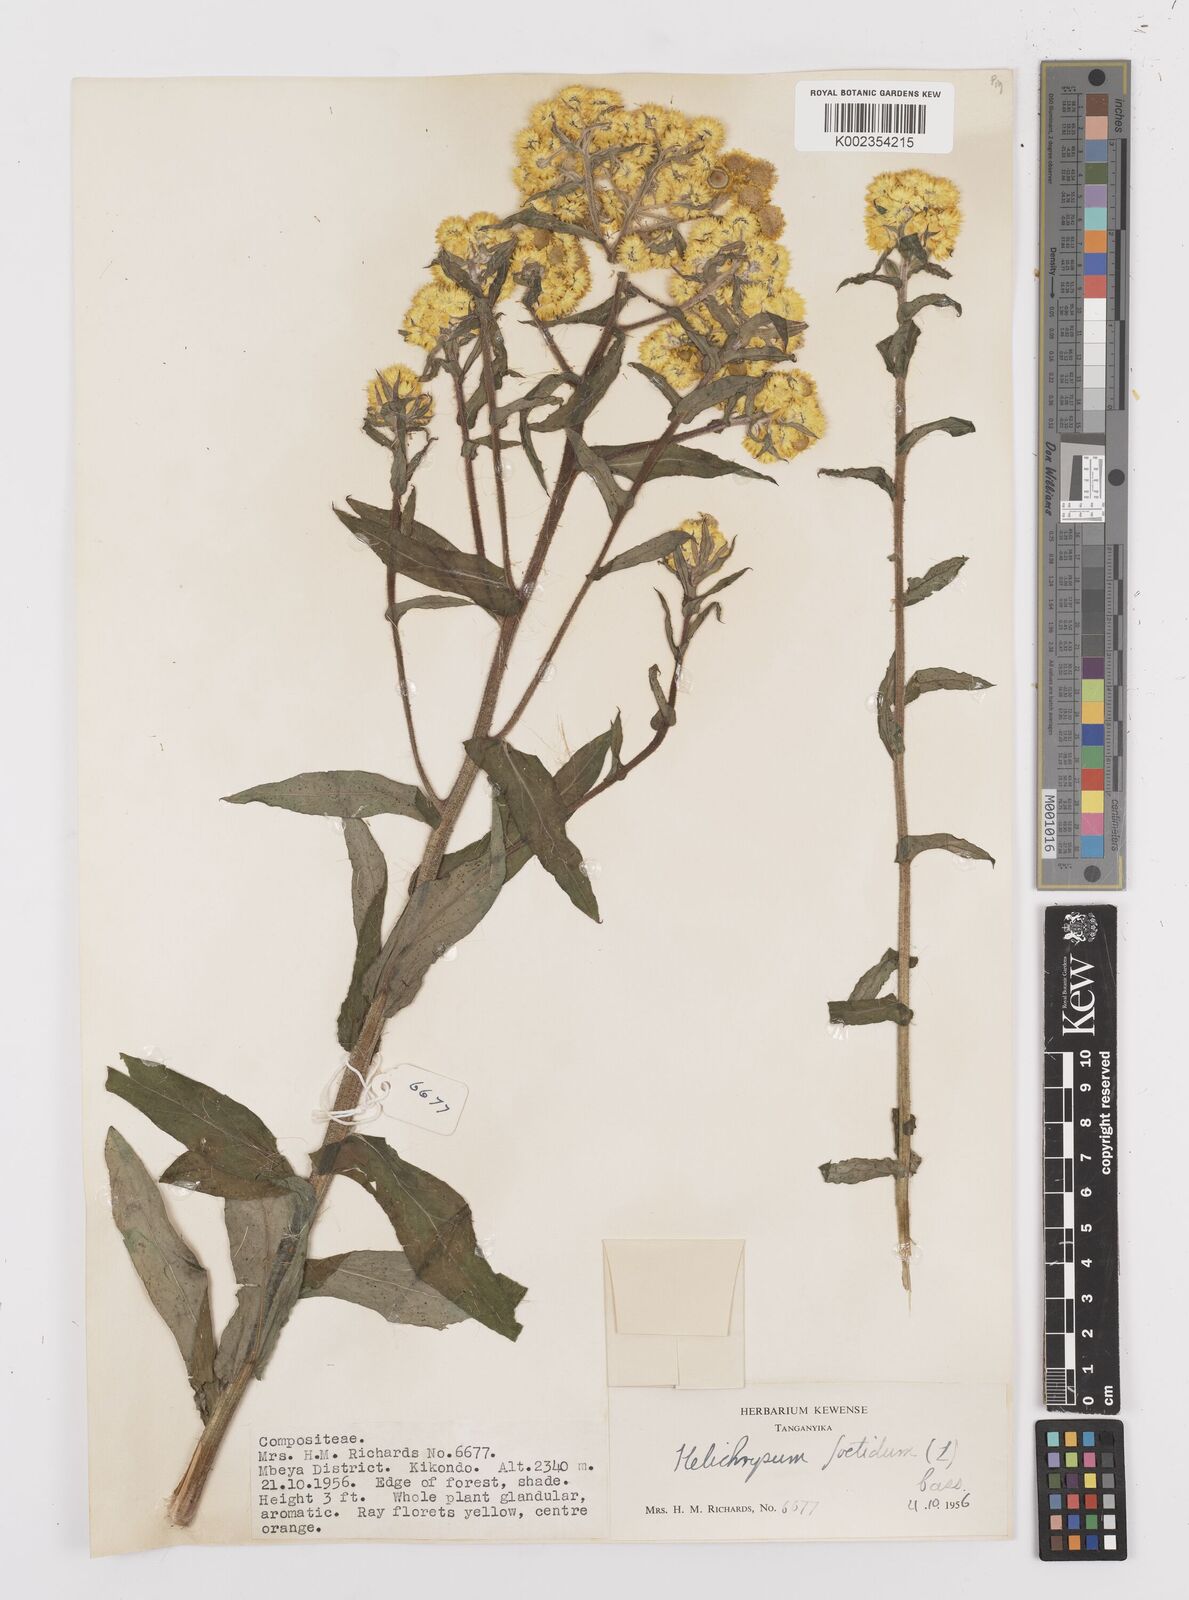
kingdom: Plantae
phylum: Tracheophyta
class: Magnoliopsida
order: Asterales
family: Asteraceae
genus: Helichrysum
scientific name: Helichrysum
